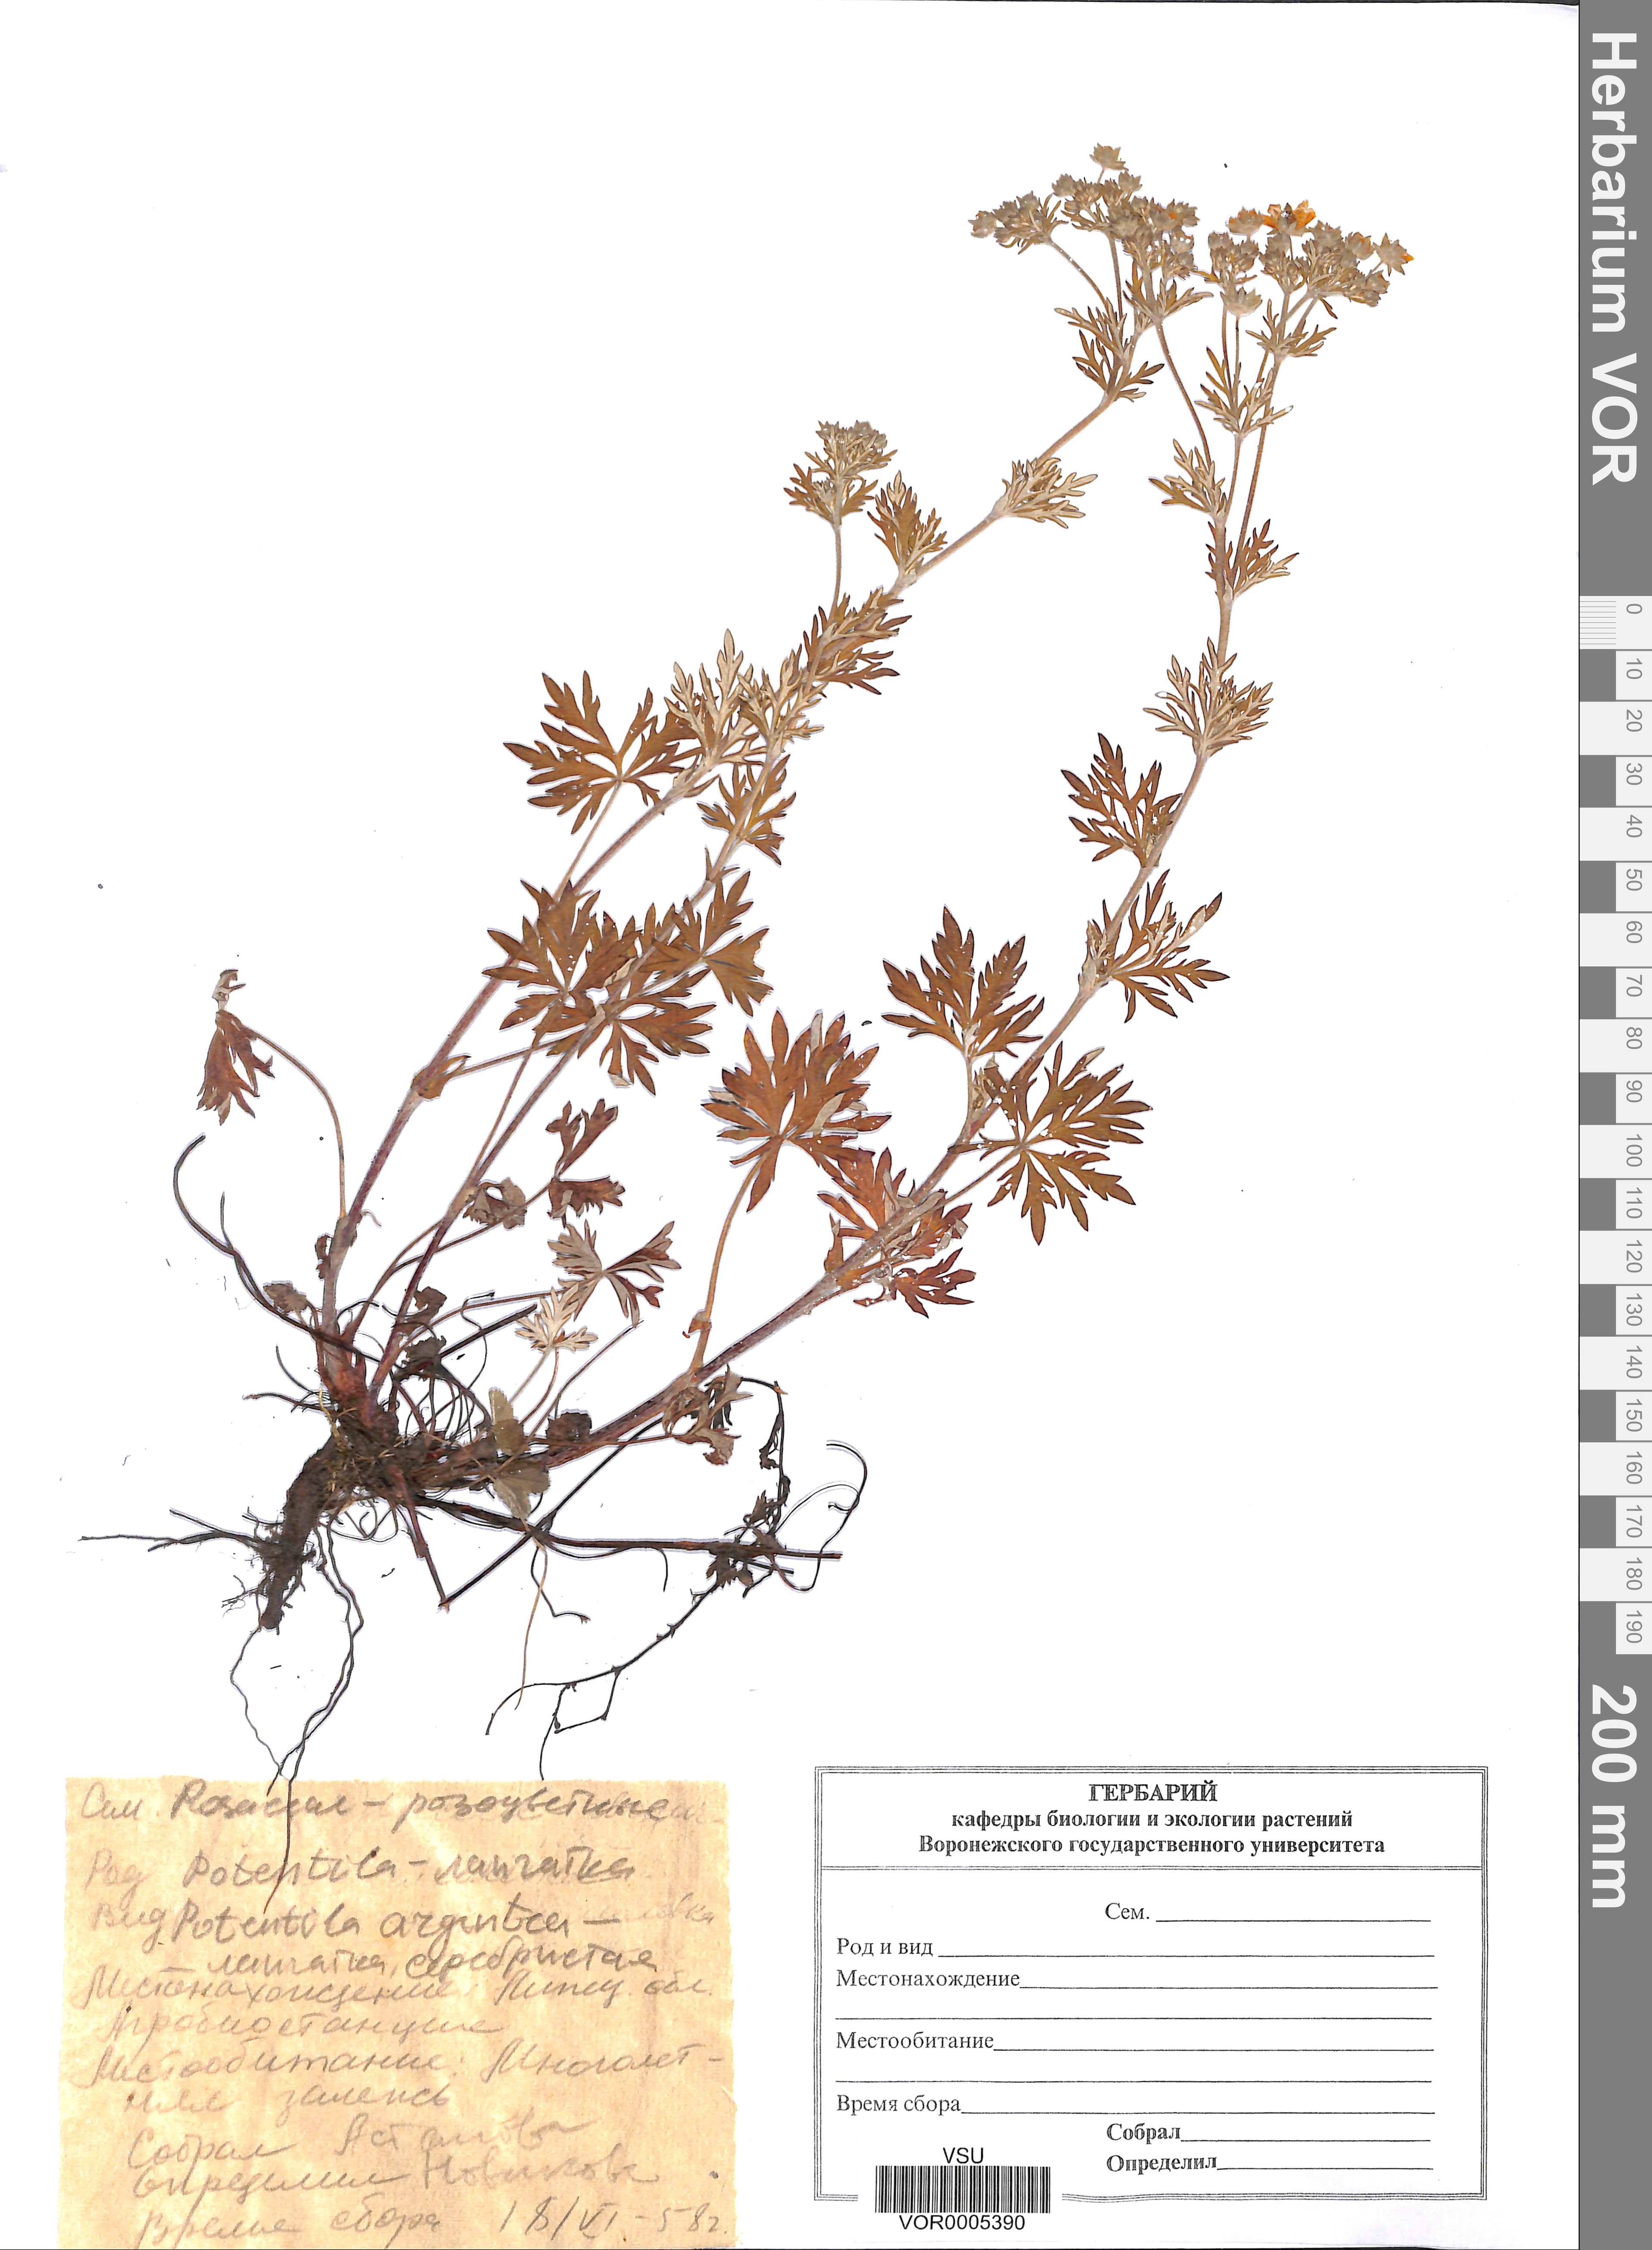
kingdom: Plantae
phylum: Tracheophyta
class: Magnoliopsida
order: Rosales
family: Rosaceae
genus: Potentilla
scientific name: Potentilla argentea
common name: Hoary cinquefoil
